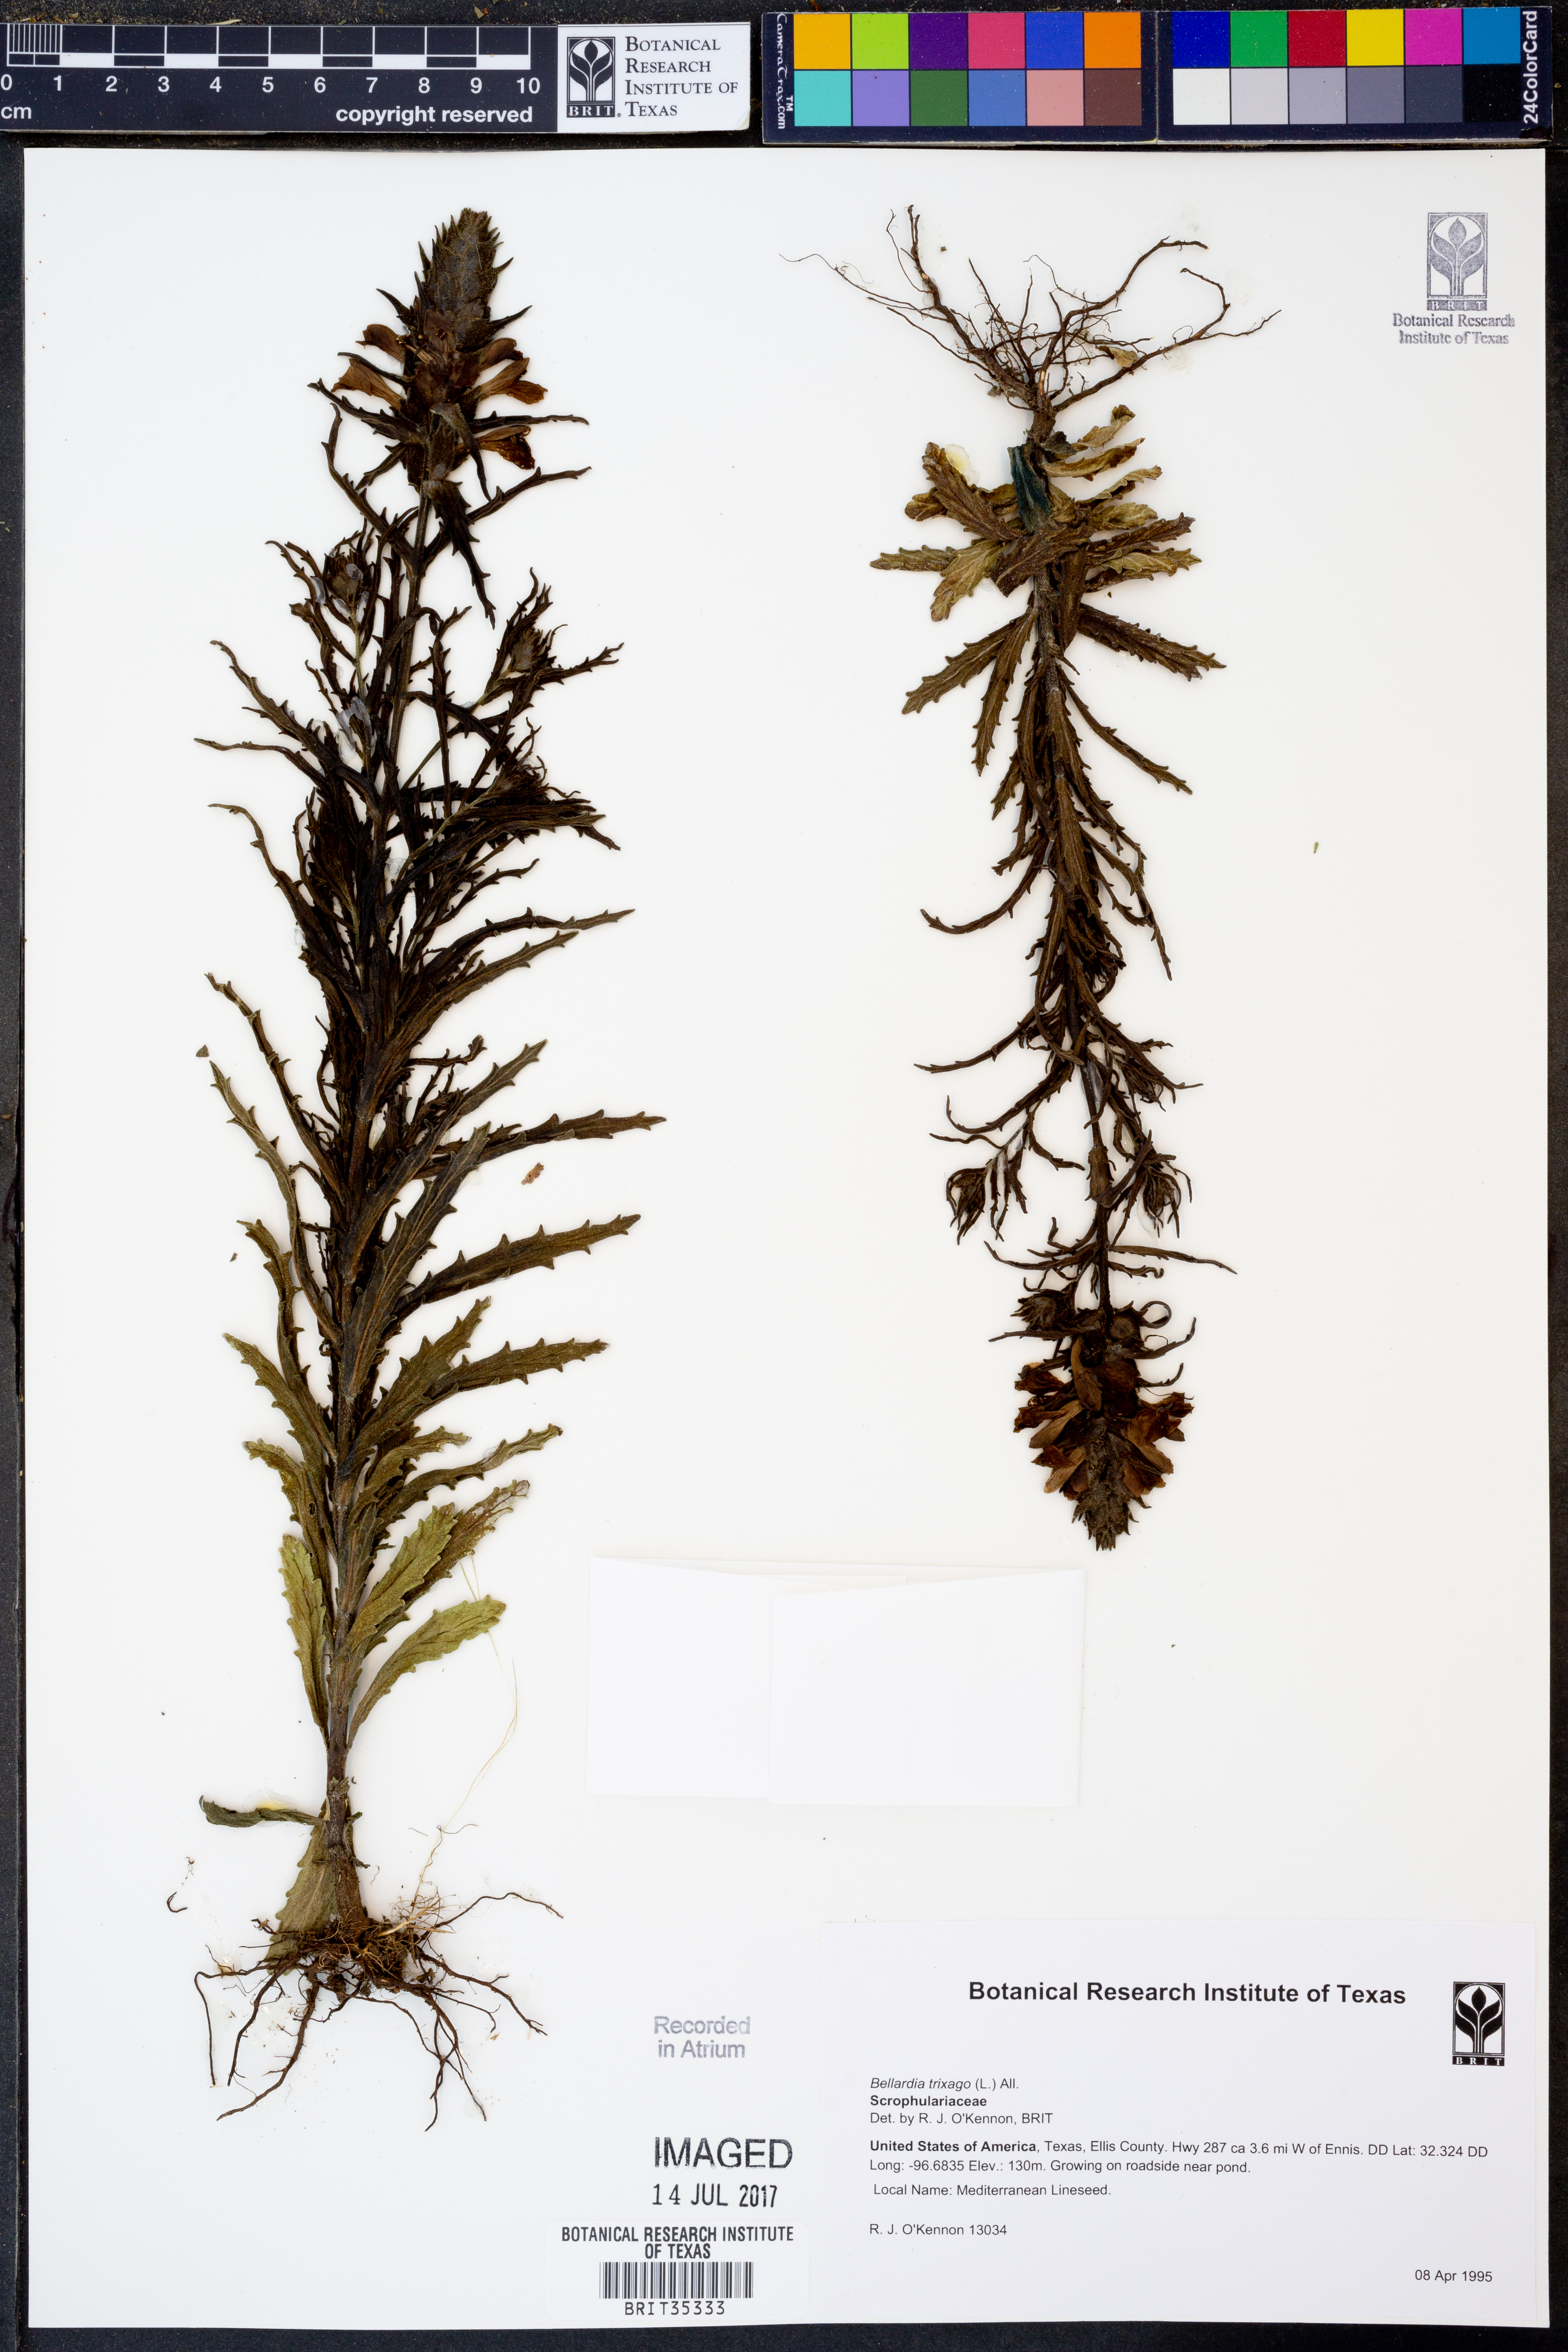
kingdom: Plantae
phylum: Tracheophyta
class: Magnoliopsida
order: Lamiales
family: Orobanchaceae
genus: Bellardia
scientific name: Bellardia trixago
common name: Mediterranean lineseed
